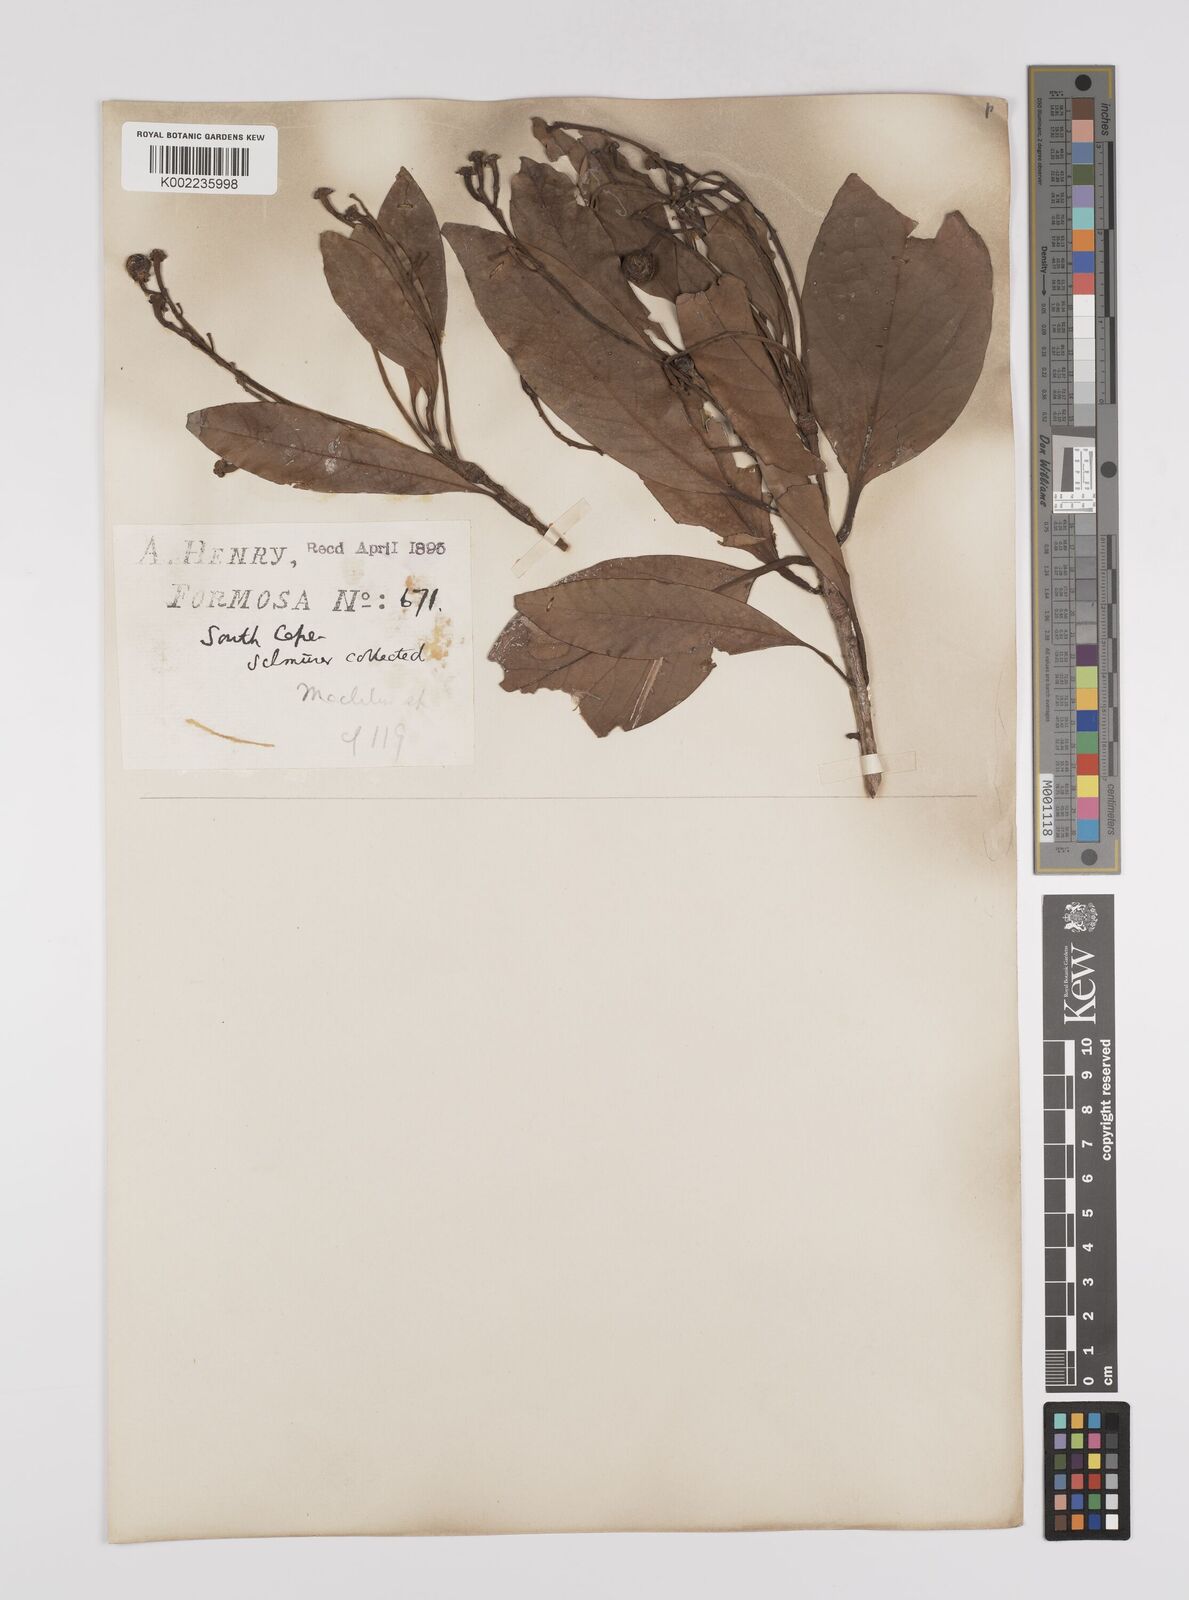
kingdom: Plantae
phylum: Tracheophyta
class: Magnoliopsida
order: Laurales
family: Lauraceae
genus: Persea
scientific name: Persea
